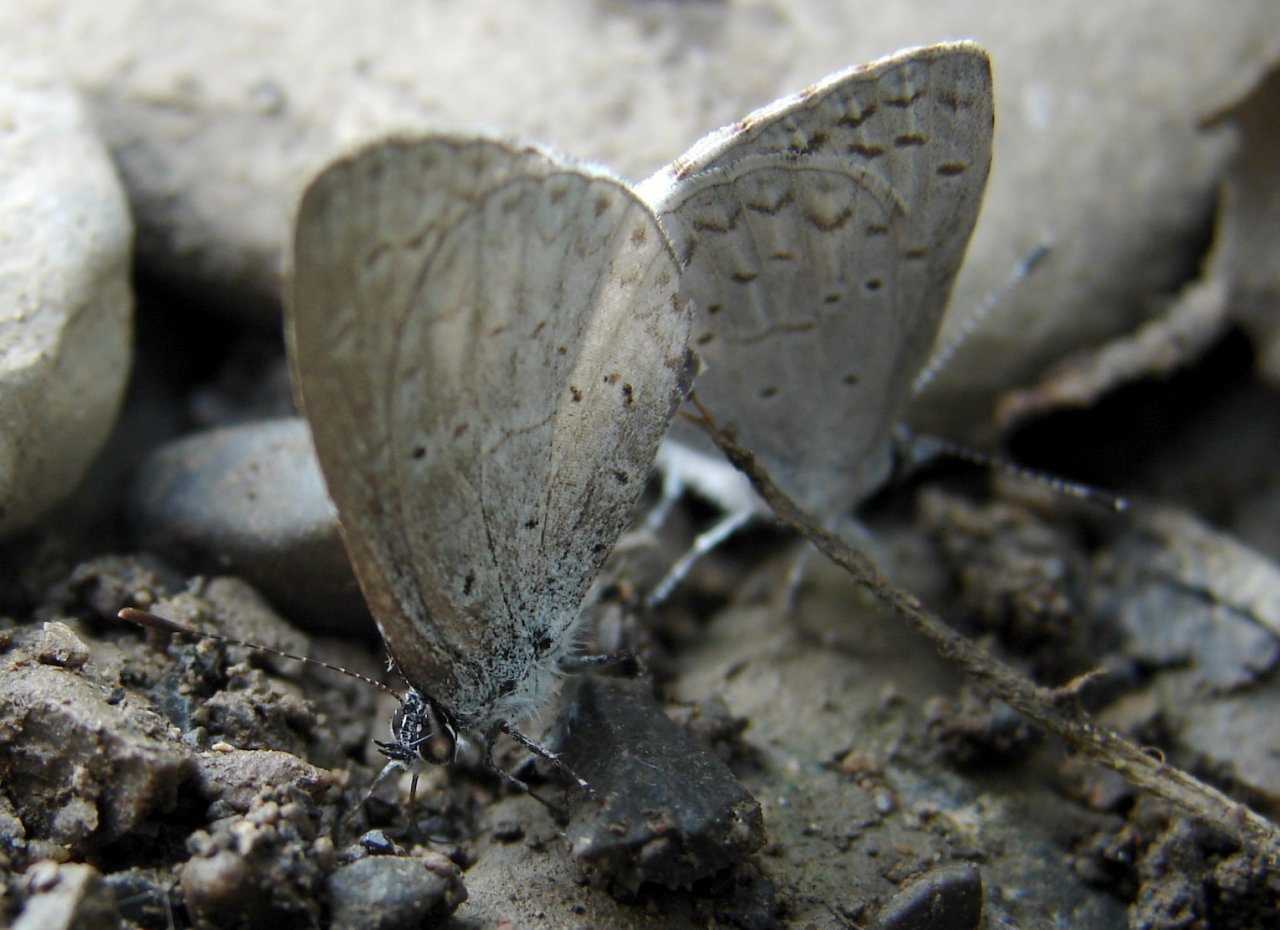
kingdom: Animalia
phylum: Arthropoda
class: Insecta
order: Lepidoptera
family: Lycaenidae
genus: Celastrina
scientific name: Celastrina ladon
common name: Echo Azure
